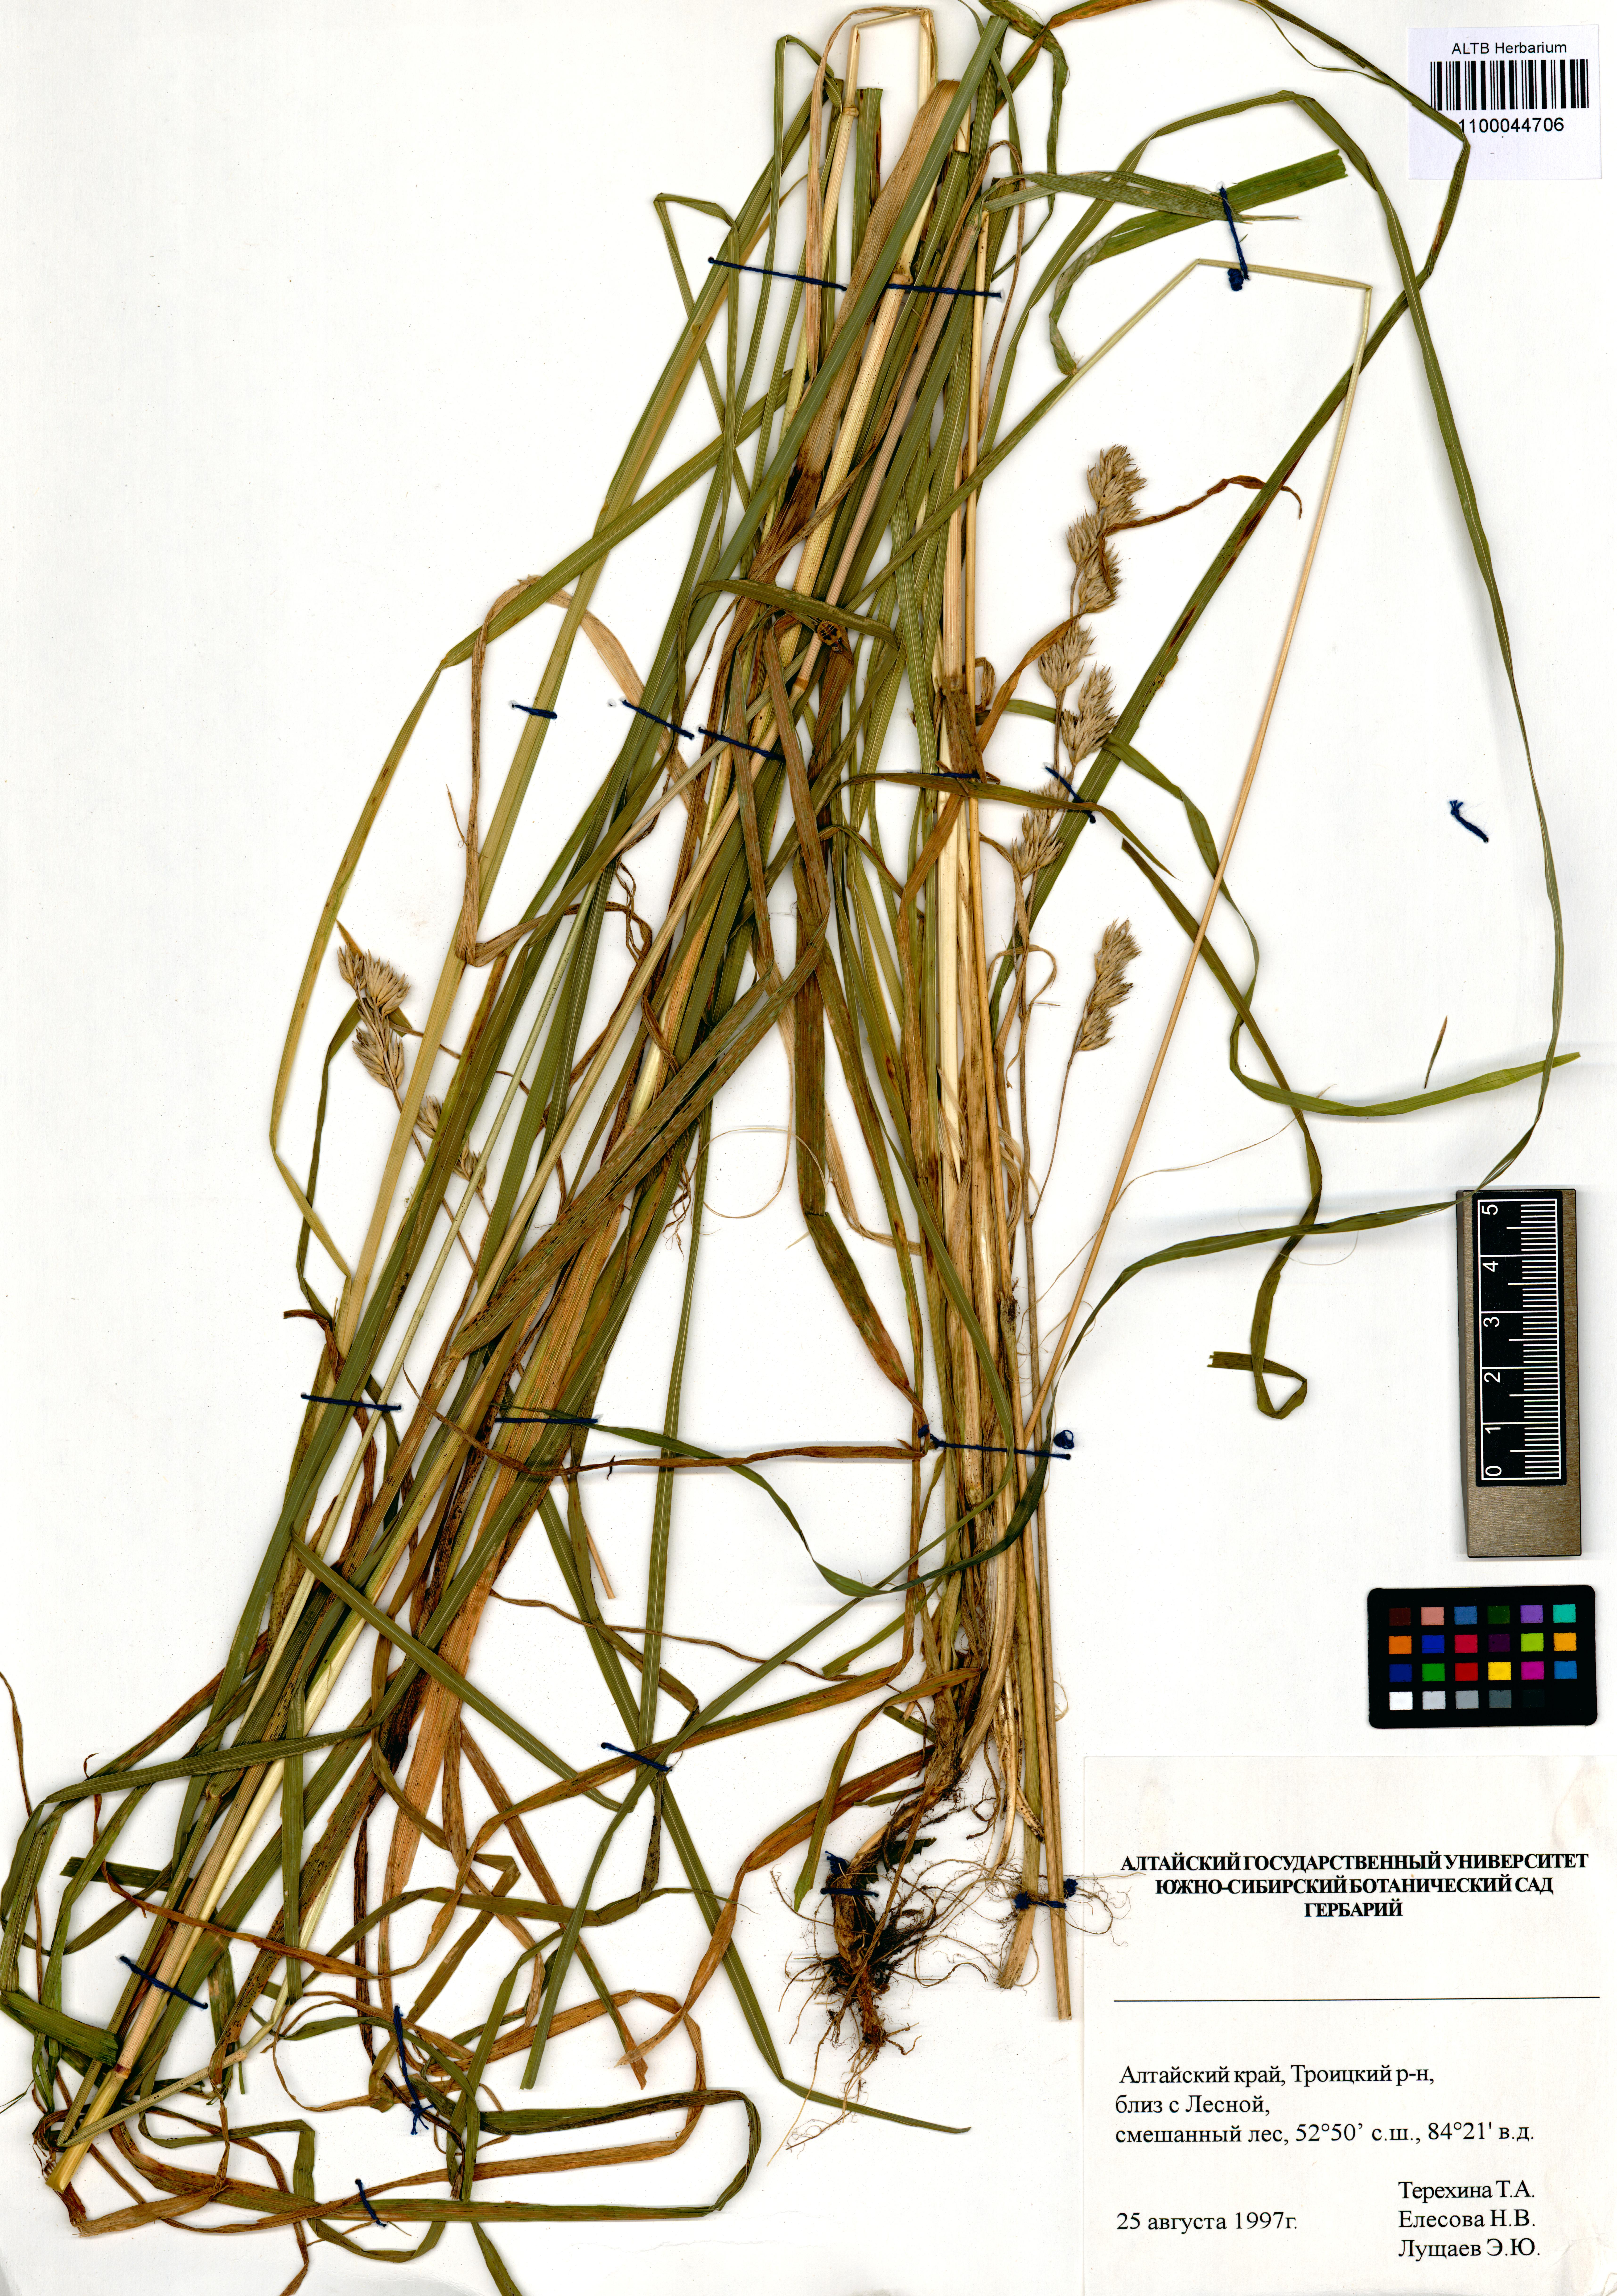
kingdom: Plantae
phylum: Tracheophyta
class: Liliopsida
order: Poales
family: Poaceae
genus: Dactylis
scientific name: Dactylis glomerata
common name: Orchardgrass
